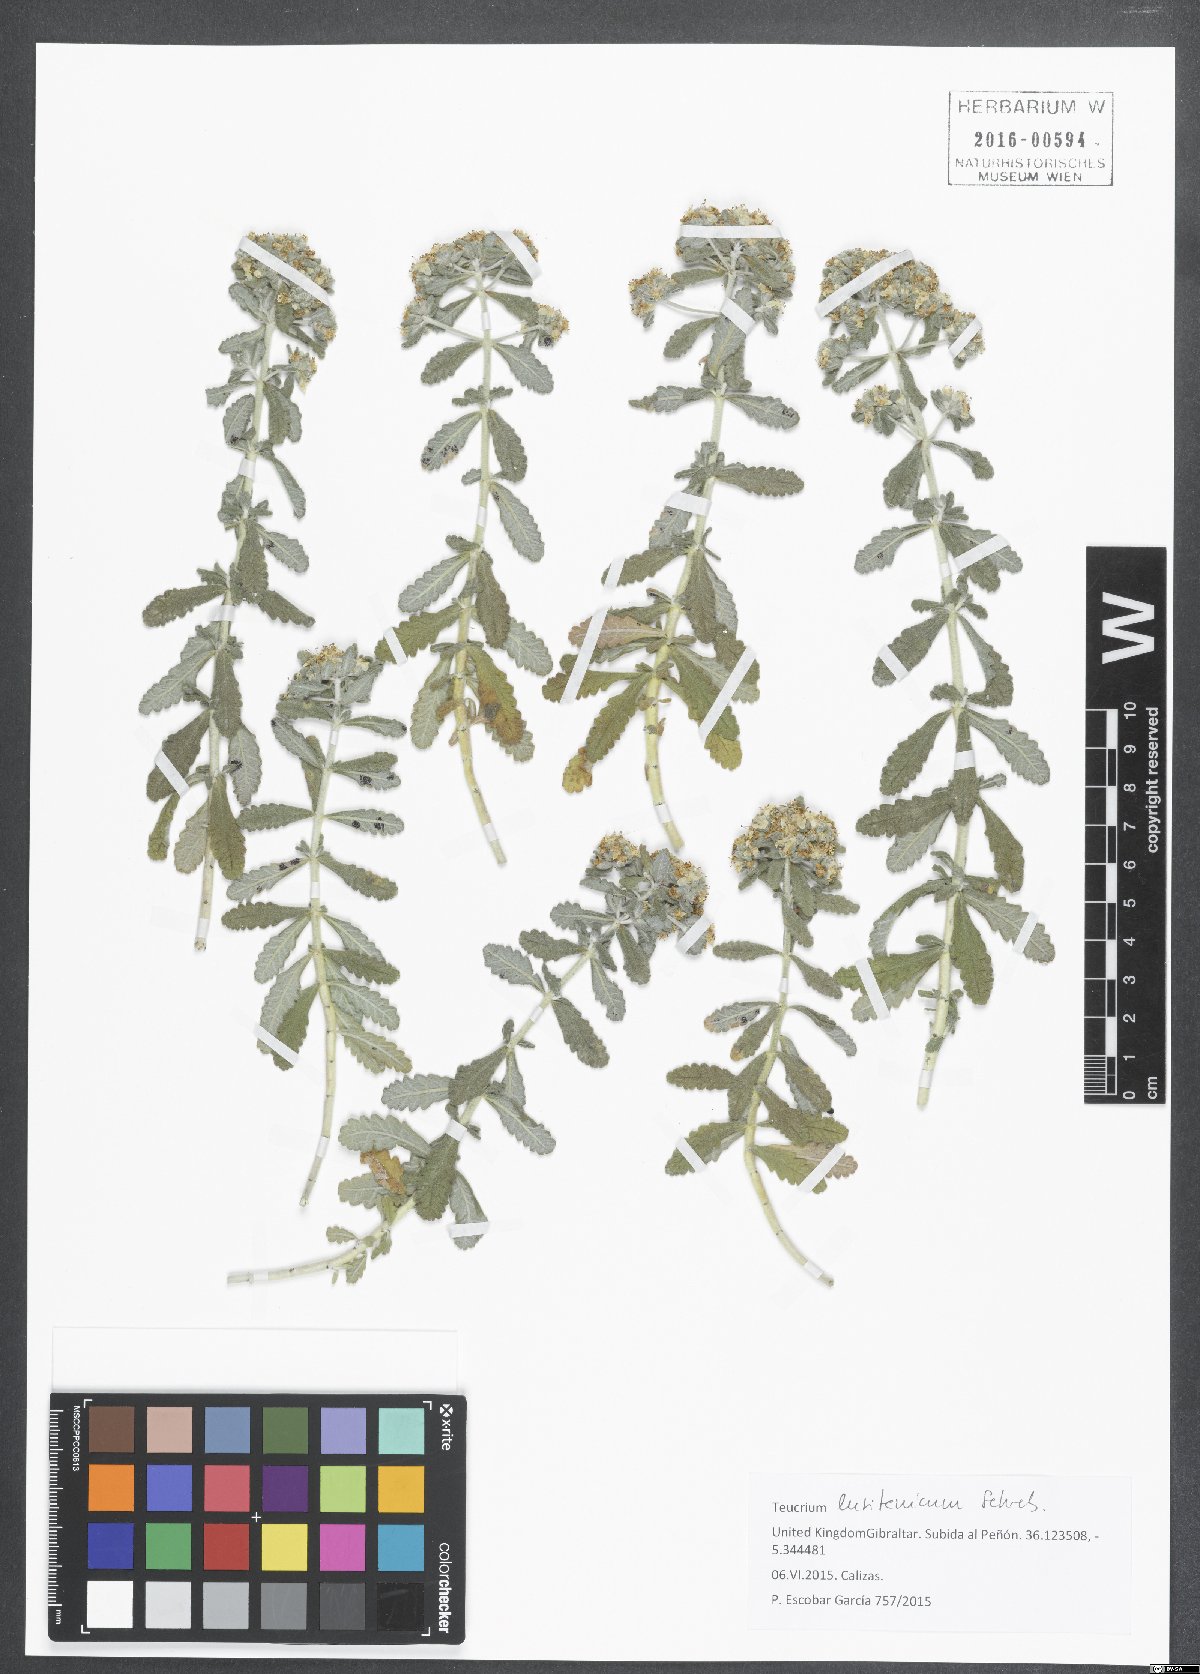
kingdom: Plantae
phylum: Tracheophyta
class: Magnoliopsida
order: Lamiales
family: Lamiaceae
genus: Teucrium
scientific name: Teucrium lusitanicum
